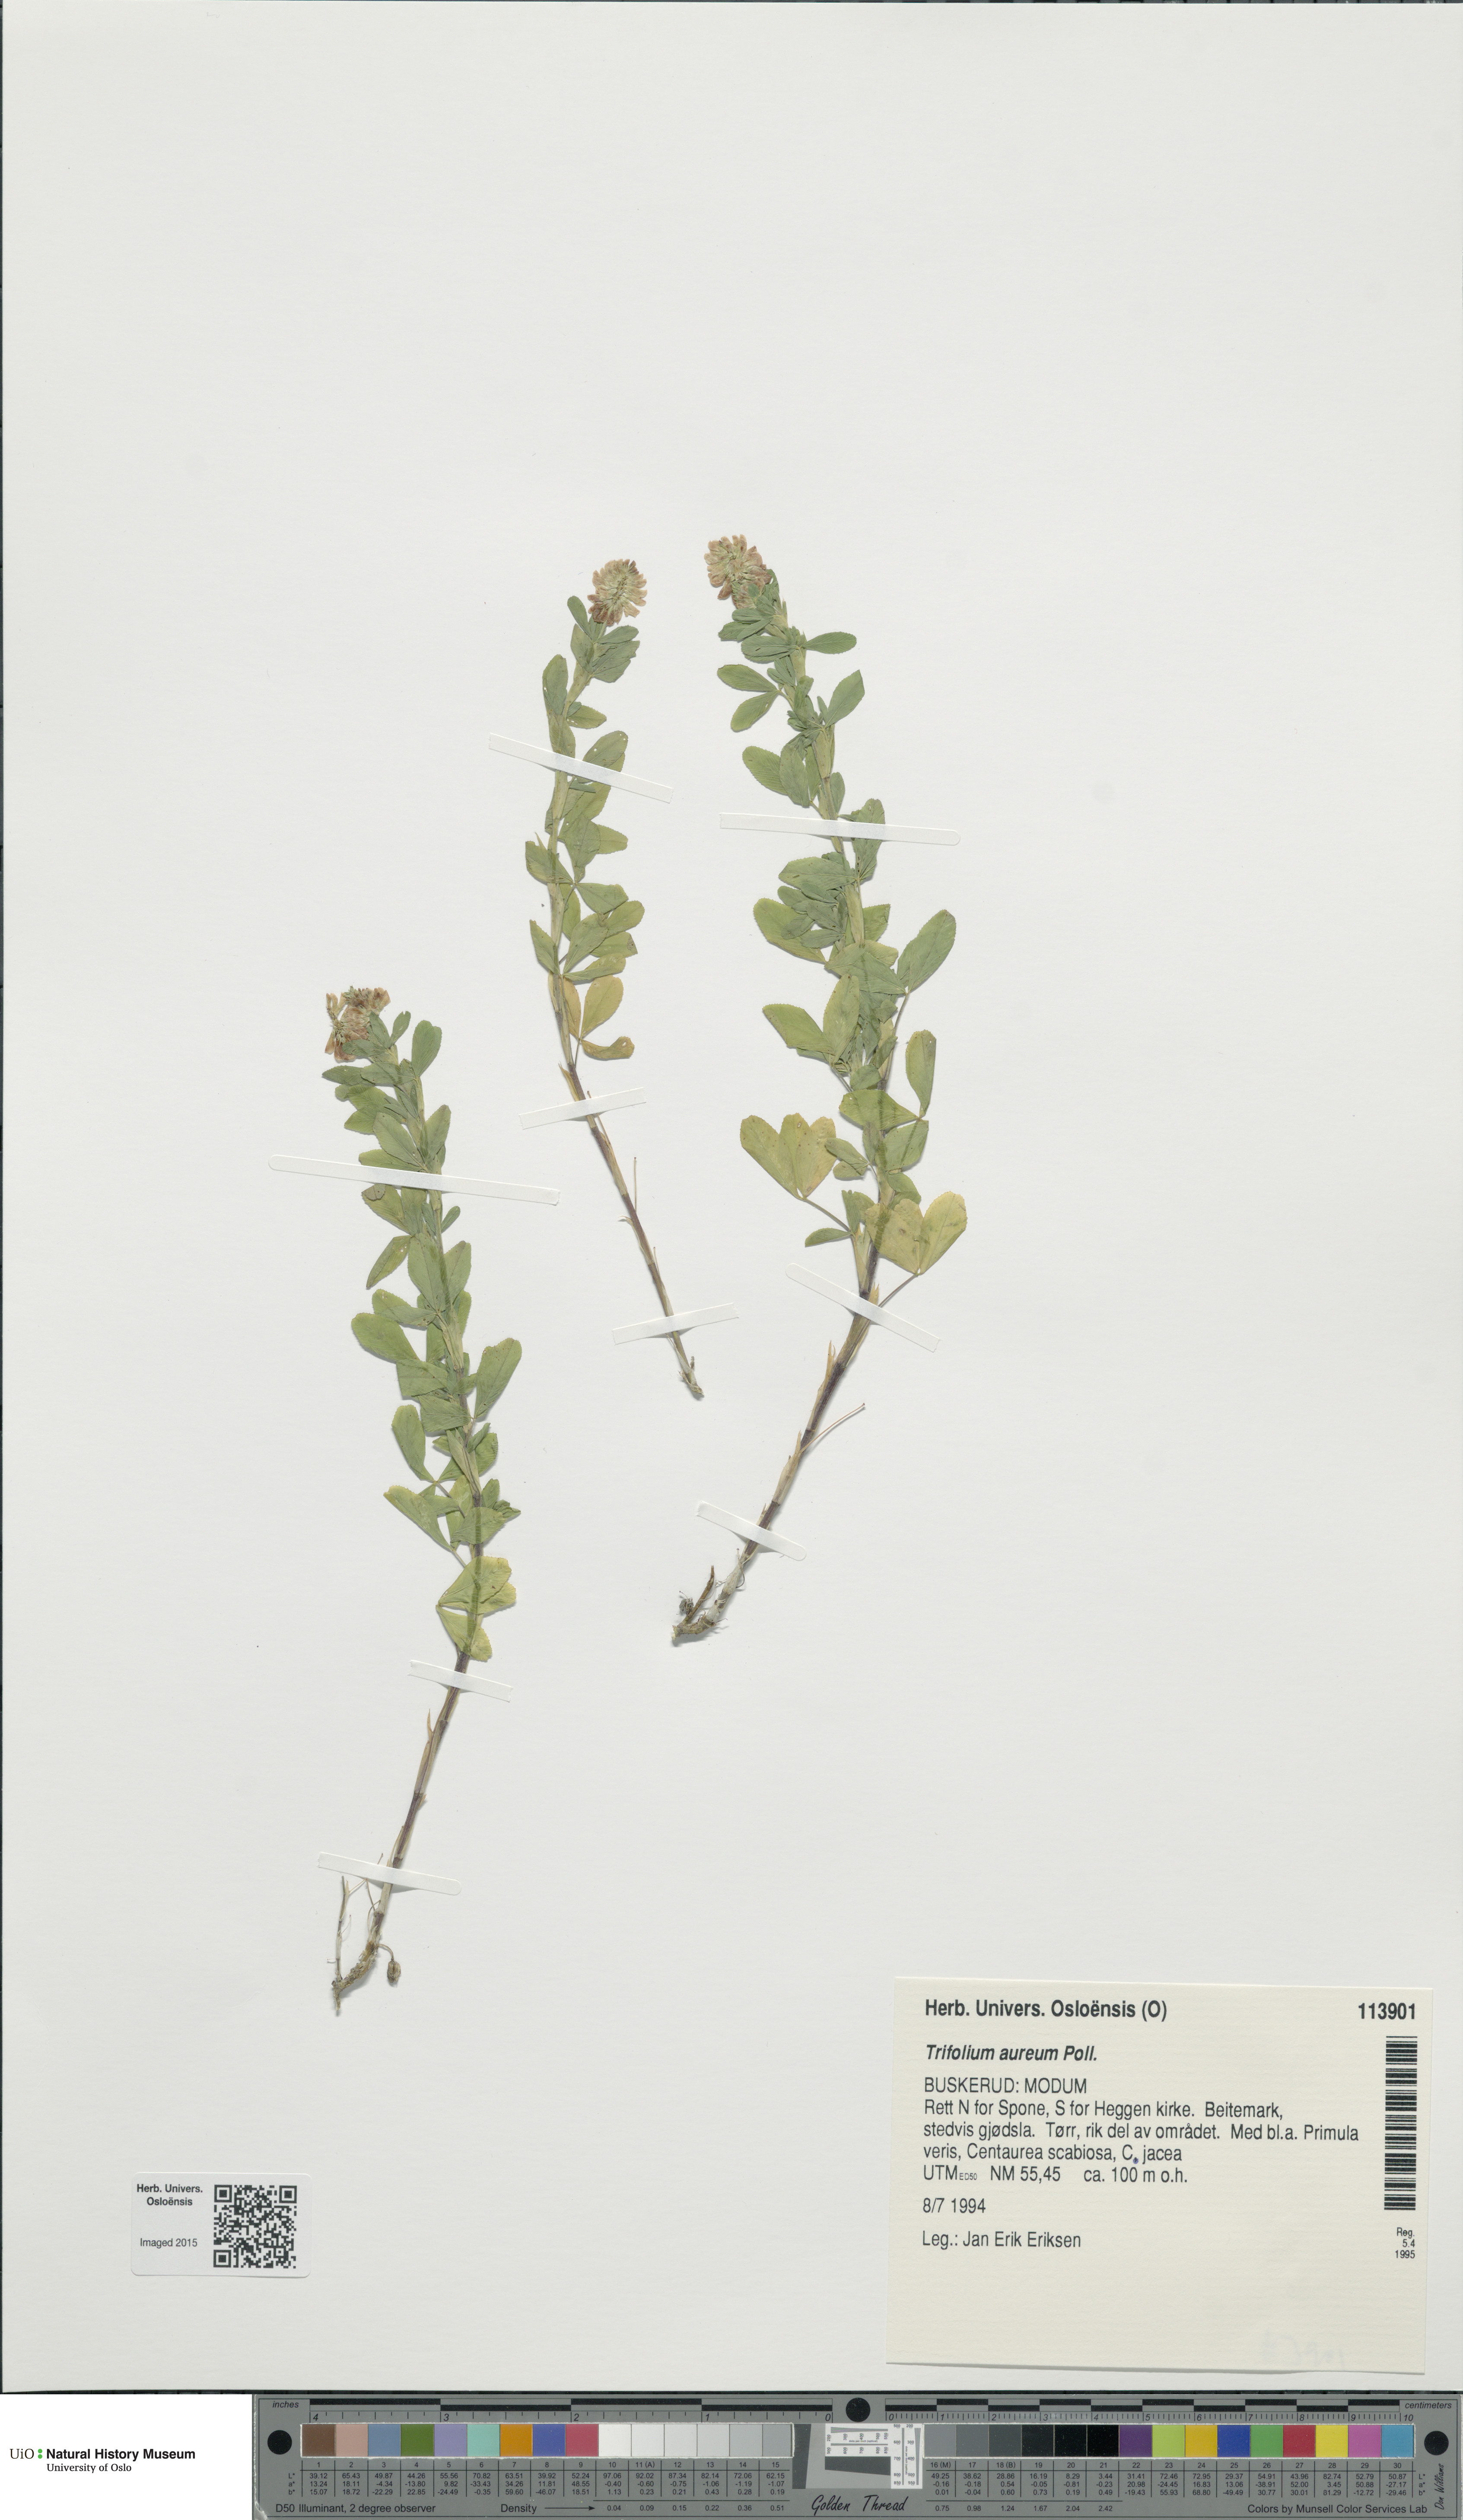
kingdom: Plantae
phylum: Tracheophyta
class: Magnoliopsida
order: Fabales
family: Fabaceae
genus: Trifolium
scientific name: Trifolium aureum
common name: Golden clover
